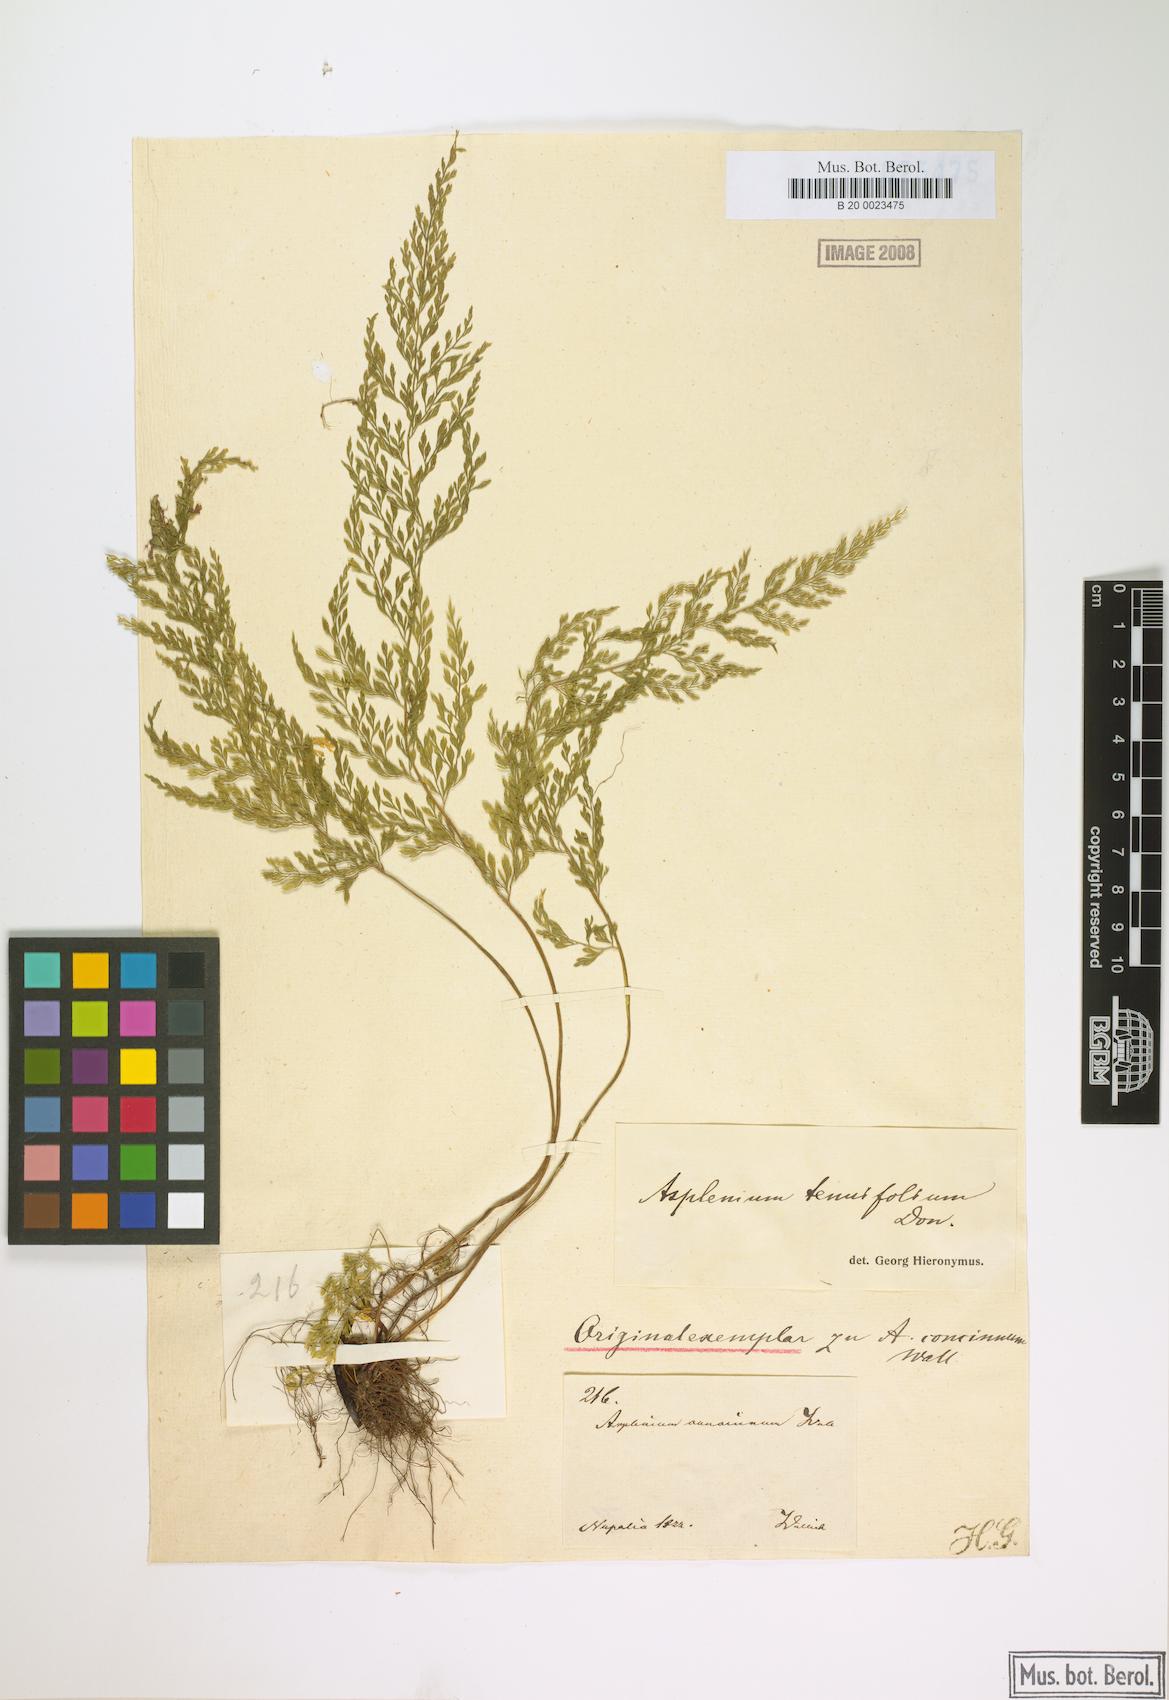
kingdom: Plantae
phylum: Tracheophyta
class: Polypodiopsida
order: Polypodiales
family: Aspleniaceae
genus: Asplenium
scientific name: Asplenium tenuifolium
